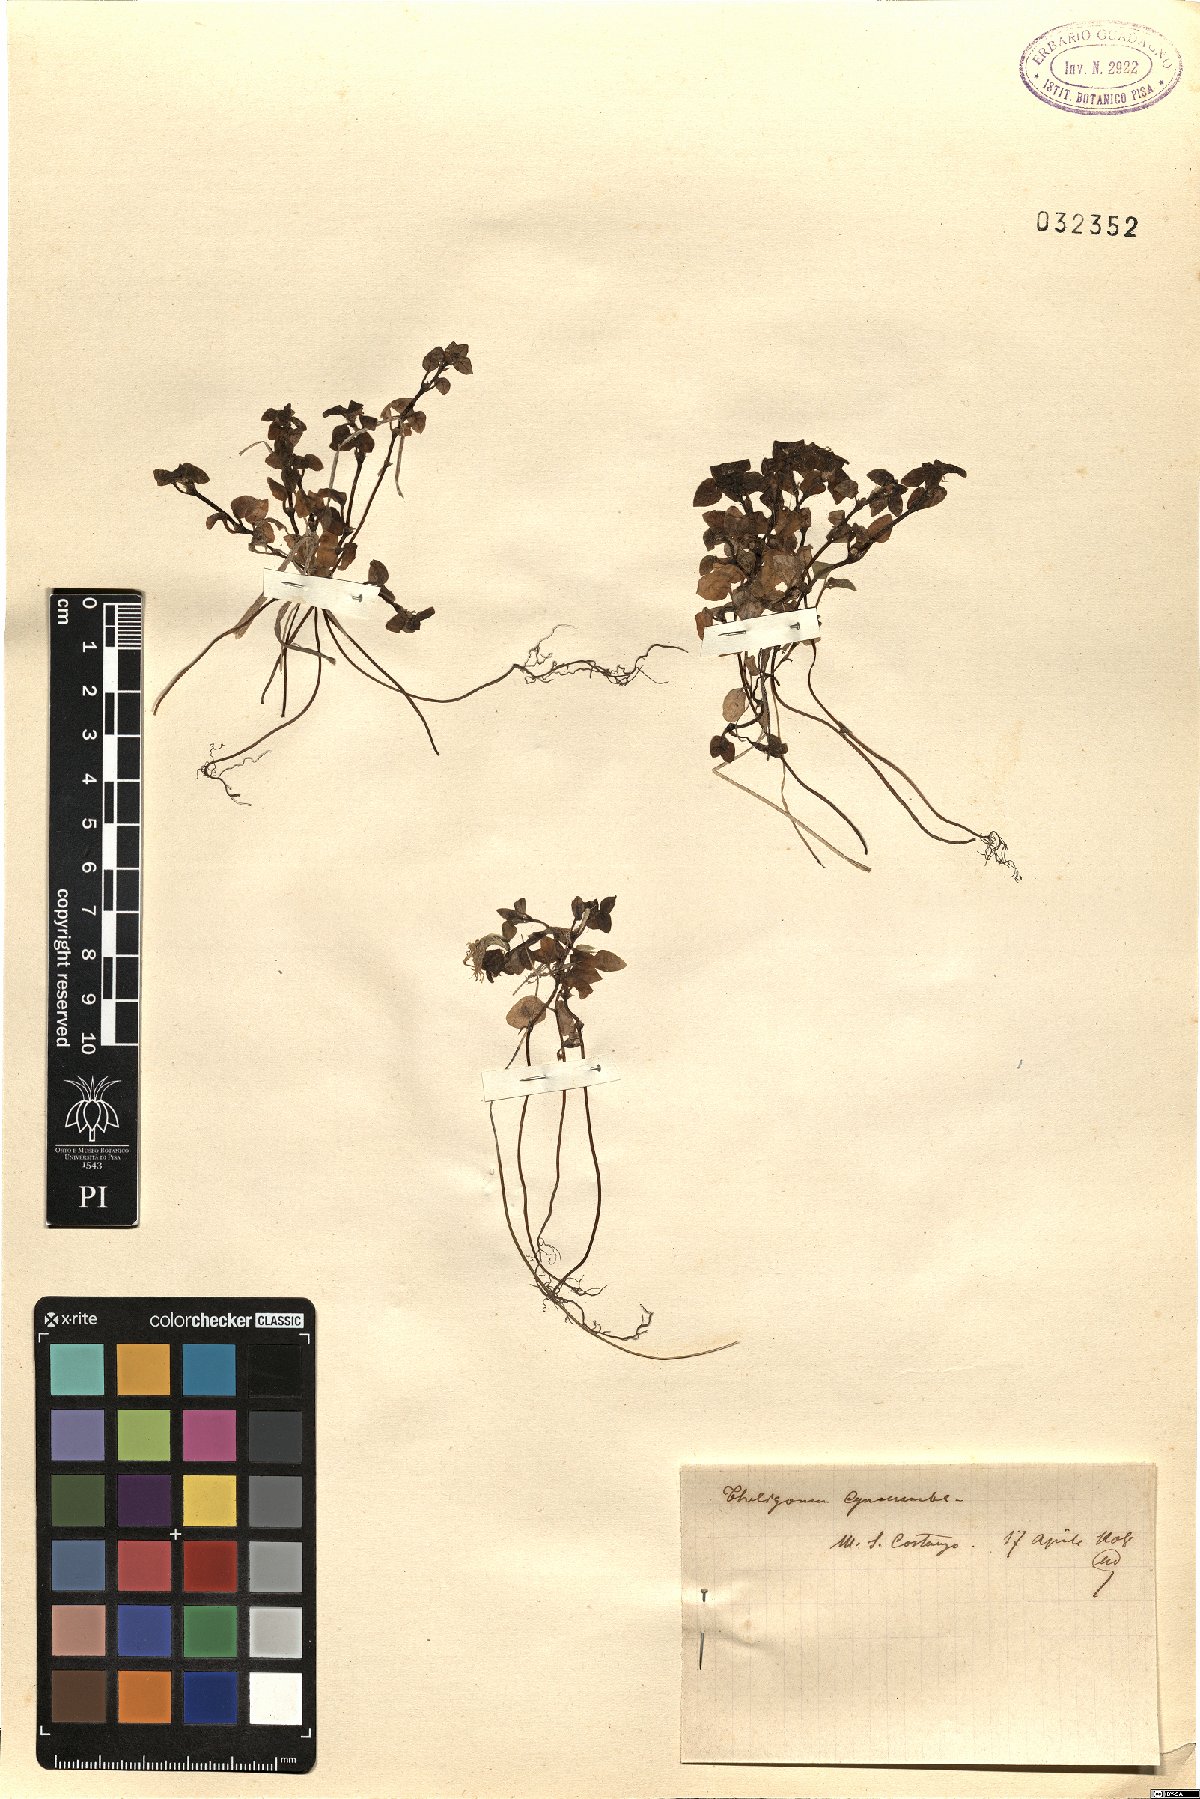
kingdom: Plantae
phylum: Tracheophyta
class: Magnoliopsida
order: Gentianales
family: Rubiaceae
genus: Theligonum
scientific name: Theligonum cynocrambe
